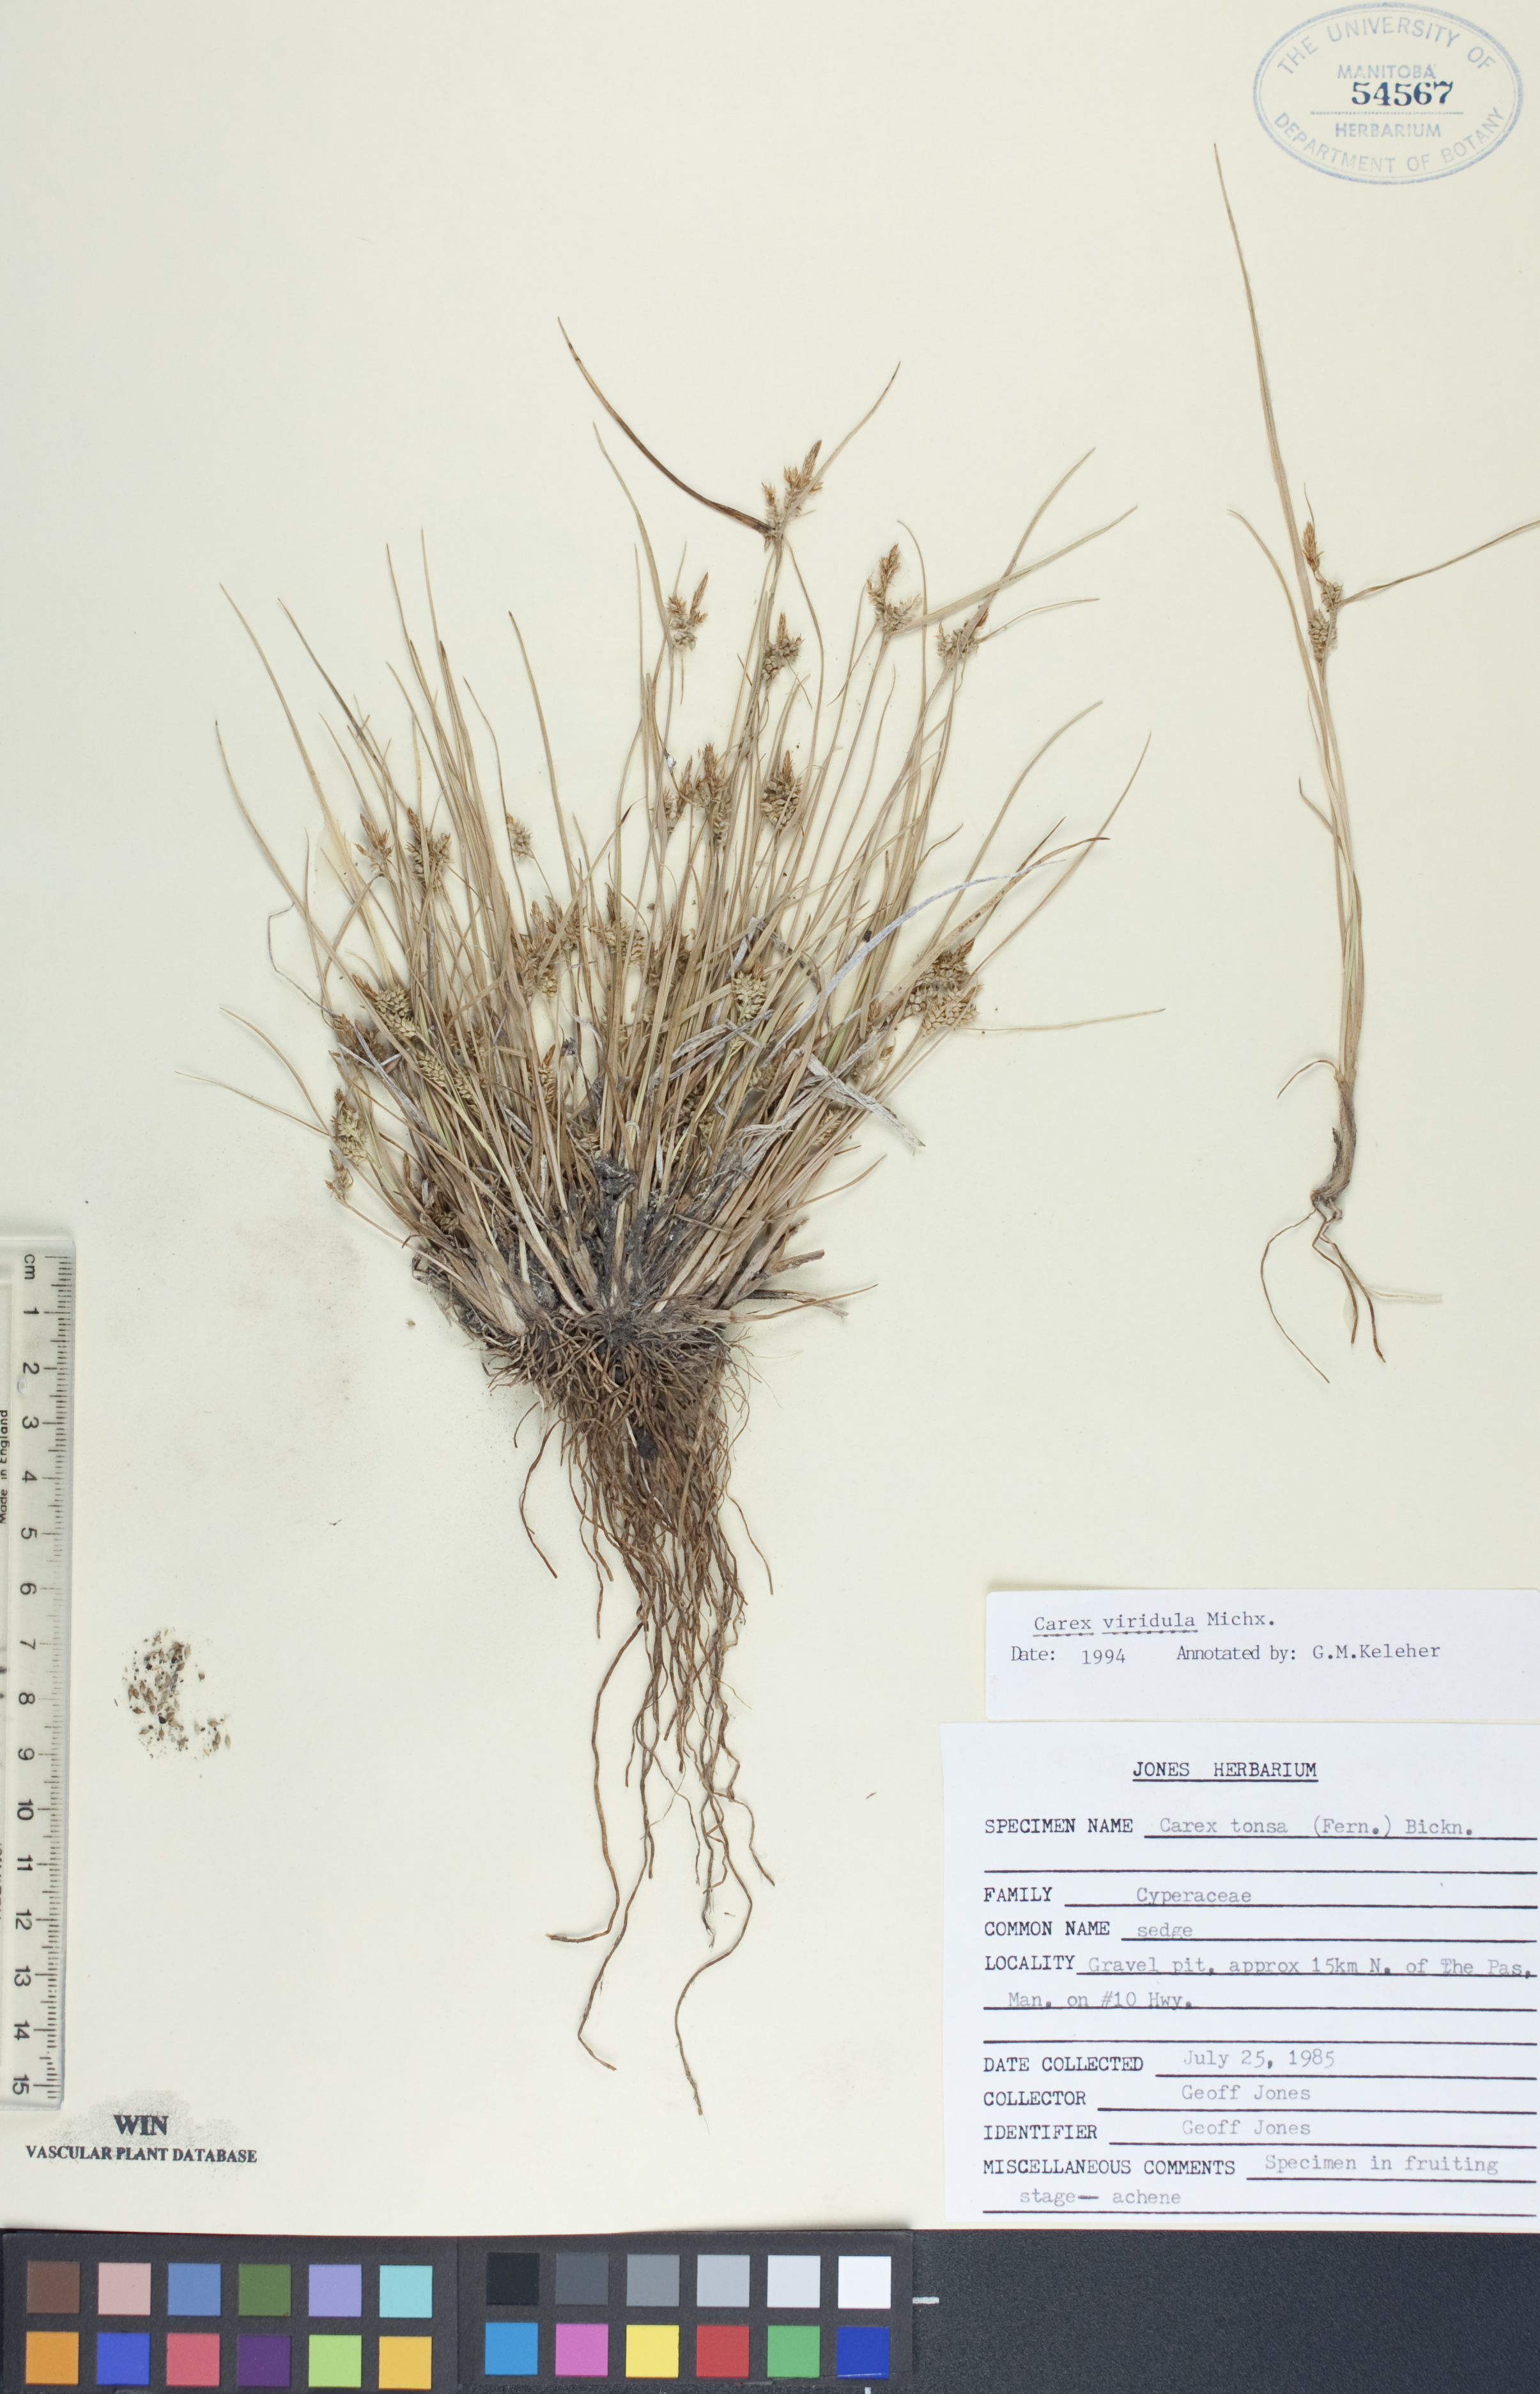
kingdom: Plantae
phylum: Tracheophyta
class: Liliopsida
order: Poales
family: Cyperaceae
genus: Carex
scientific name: Carex oederi
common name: Common & small-fruited yellow-sedge
